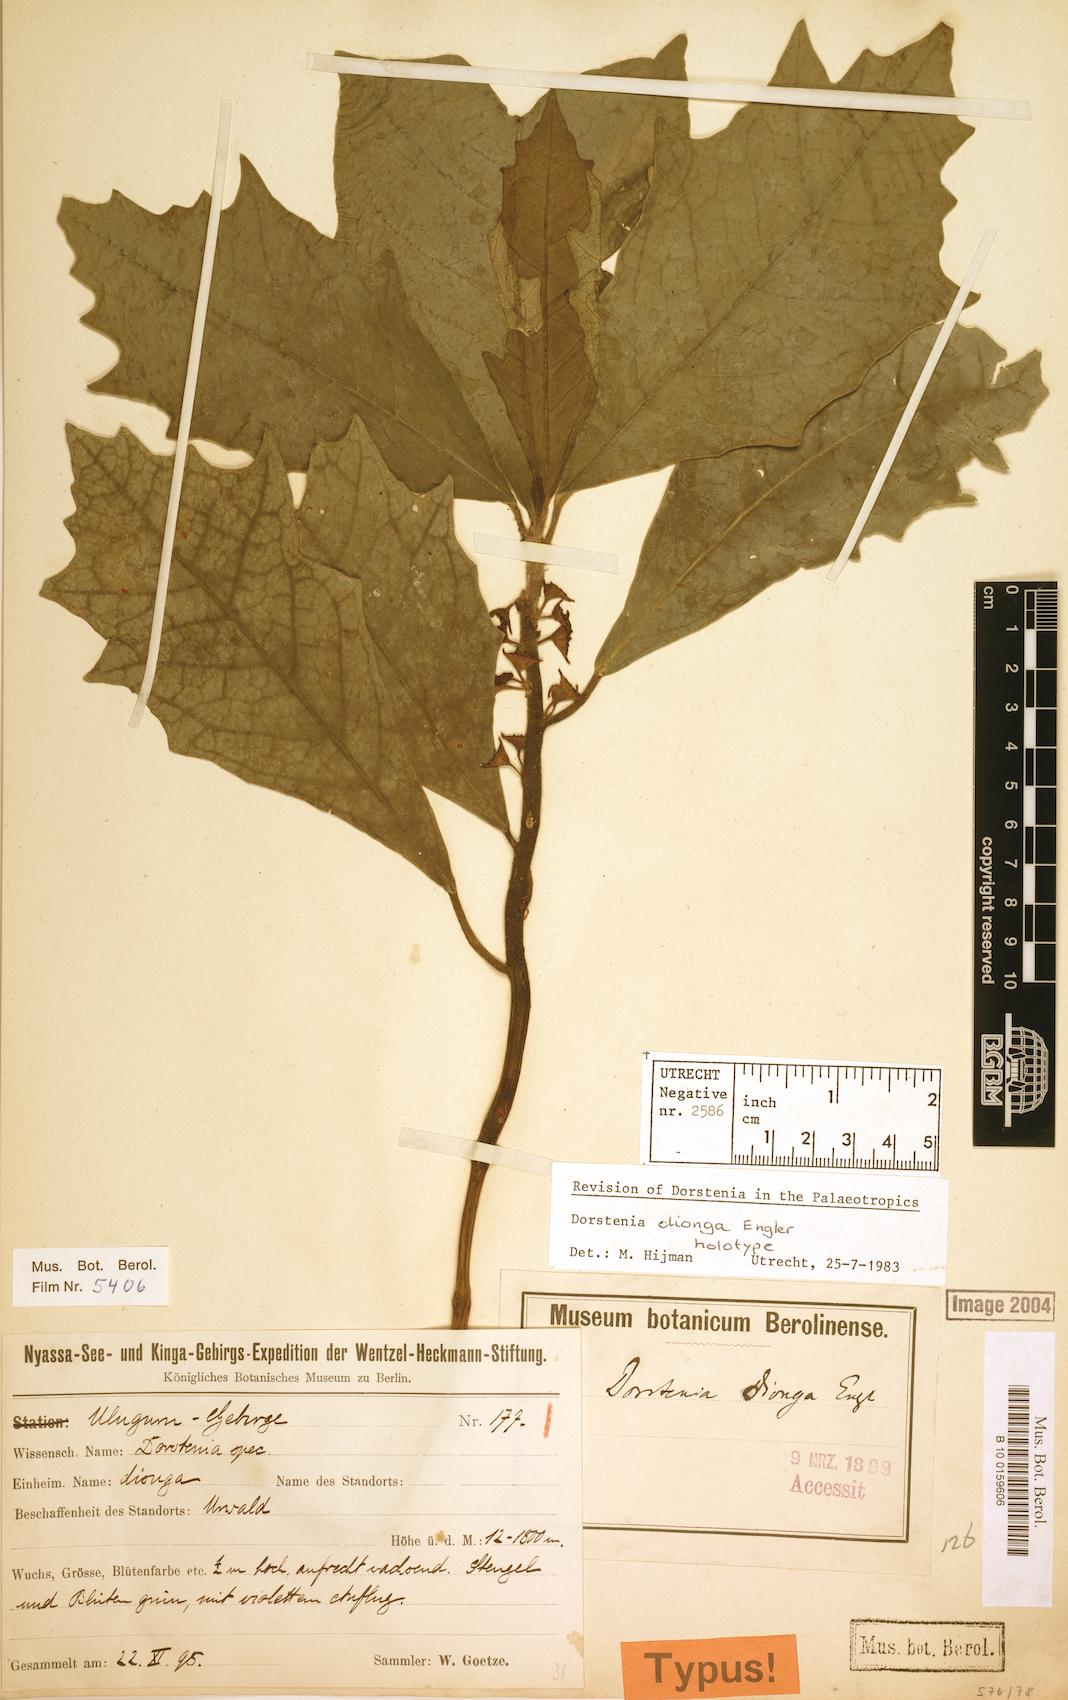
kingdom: Plantae
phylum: Tracheophyta
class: Magnoliopsida
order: Rosales
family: Moraceae
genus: Dorstenia
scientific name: Dorstenia dionga
